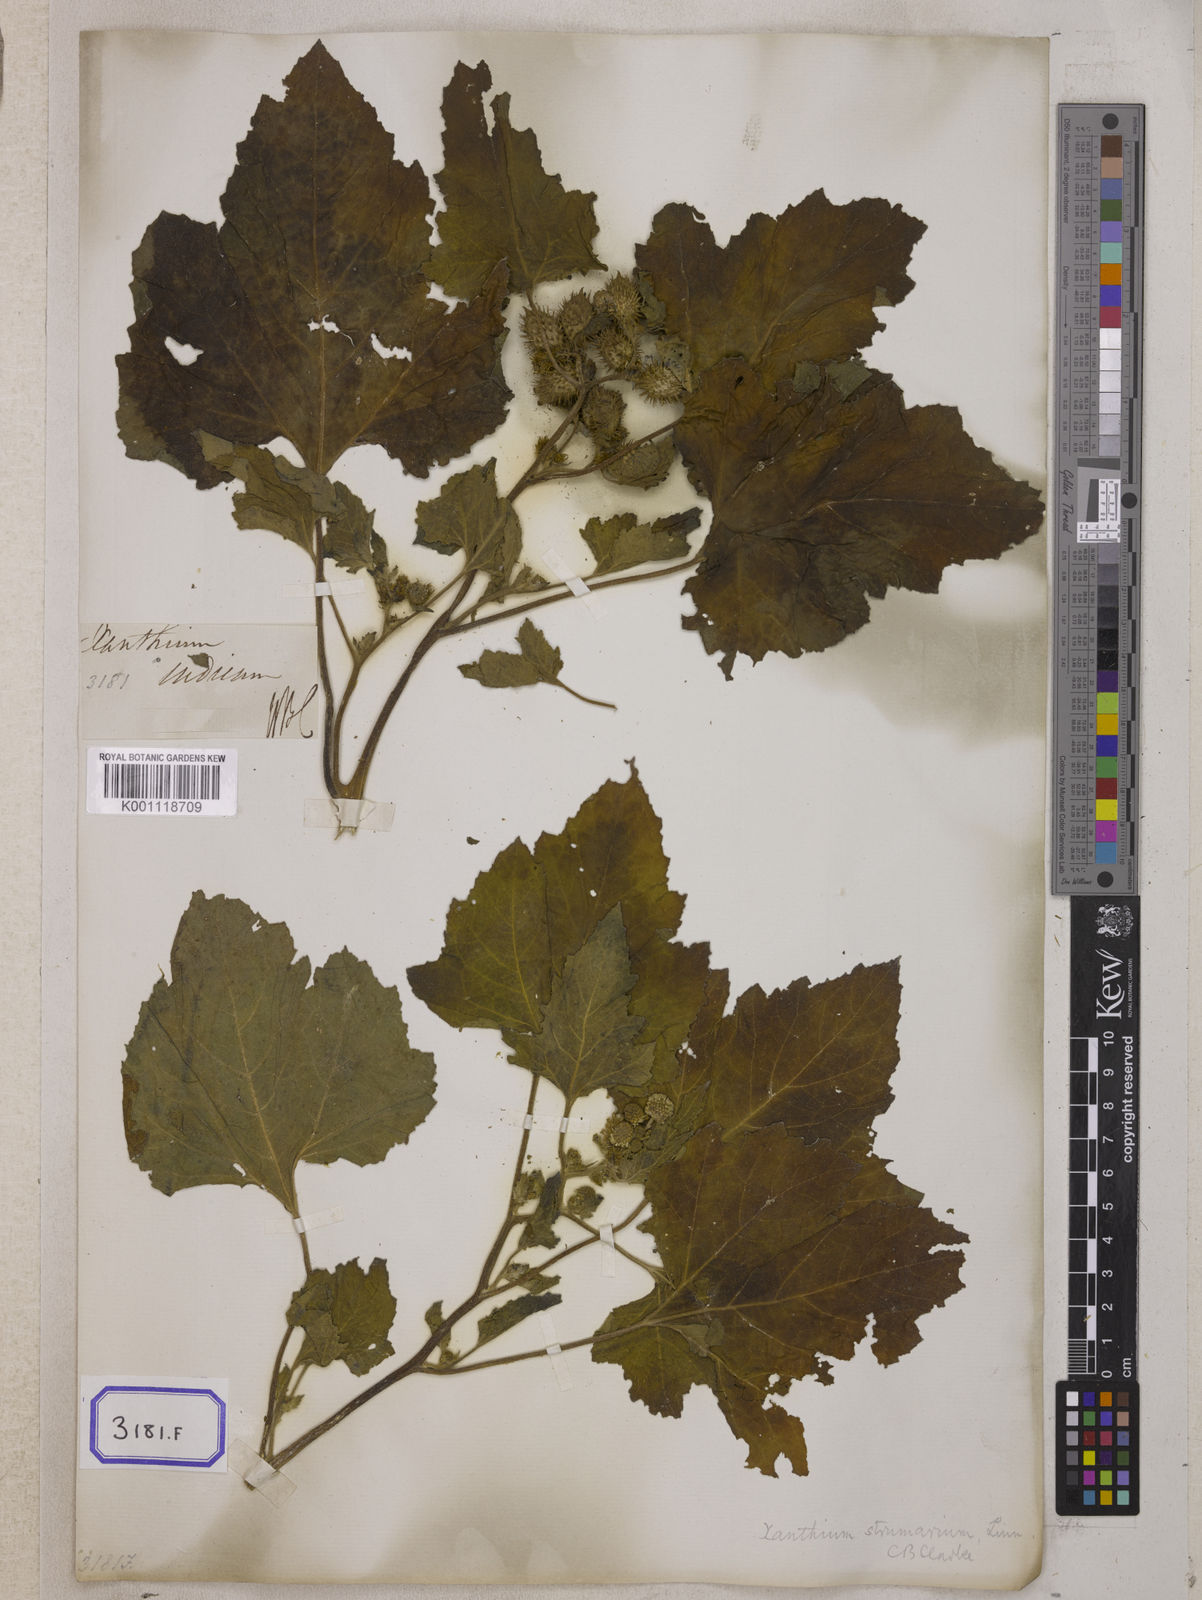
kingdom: Plantae
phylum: Tracheophyta
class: Magnoliopsida
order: Asterales
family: Asteraceae
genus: Xanthium
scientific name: Xanthium strumarium
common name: Rough cocklebur
